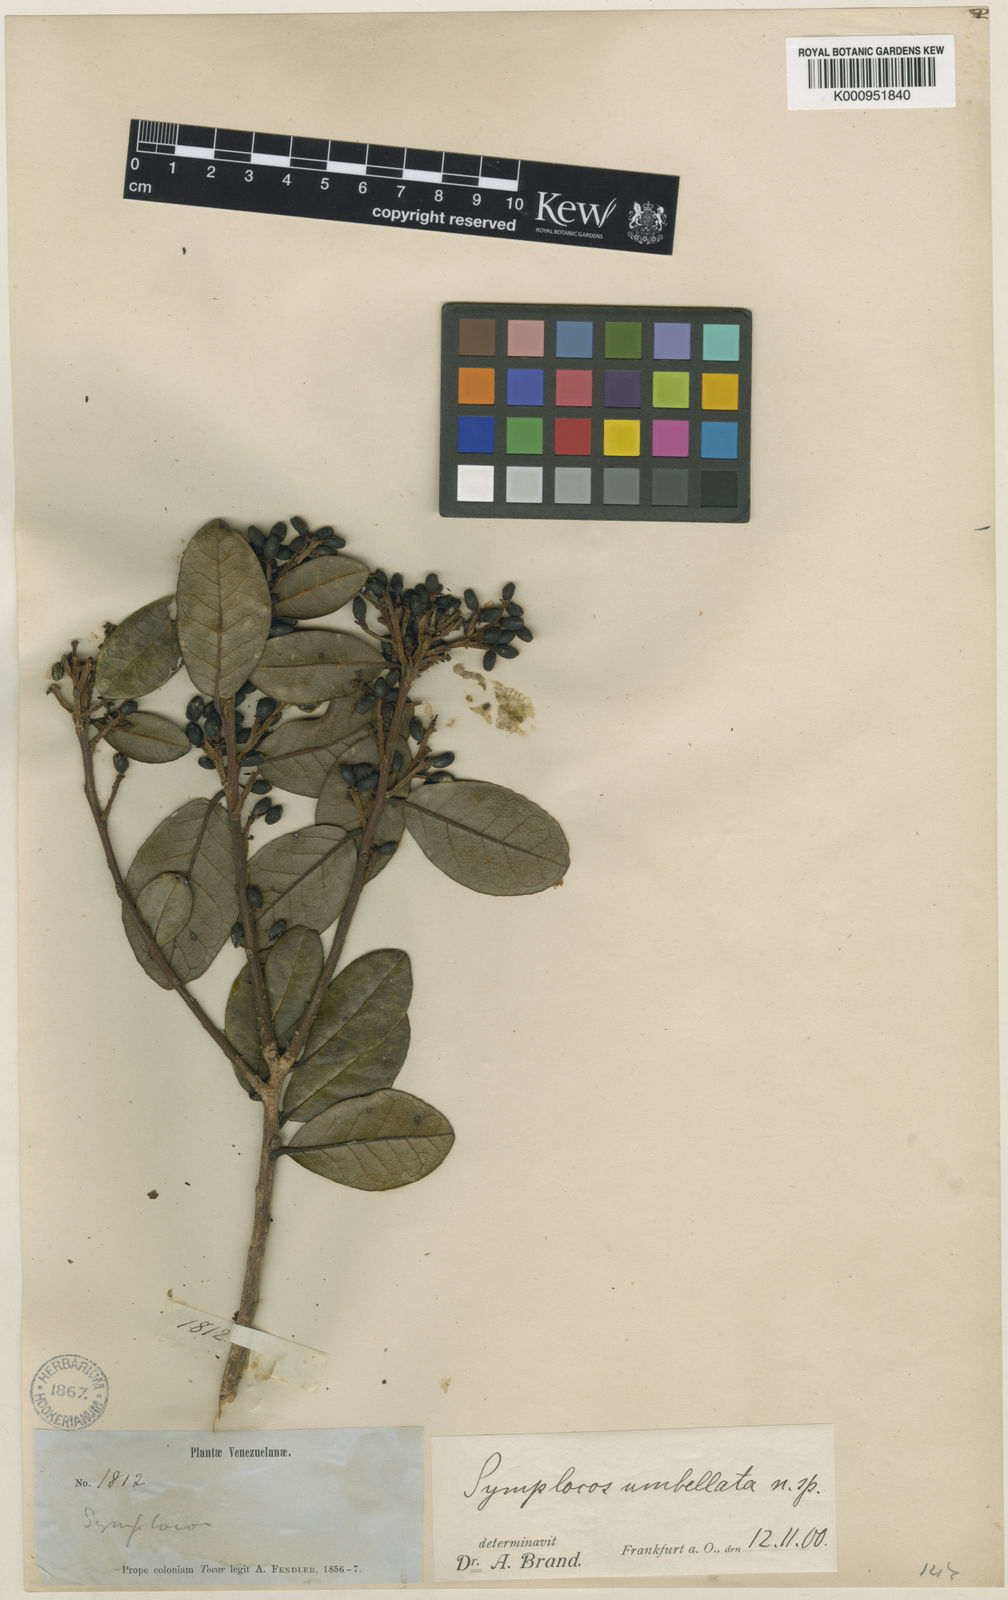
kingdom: Plantae
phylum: Tracheophyta
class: Magnoliopsida
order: Ericales
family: Symplocaceae
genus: Symplocos
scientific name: Symplocos umbellata
